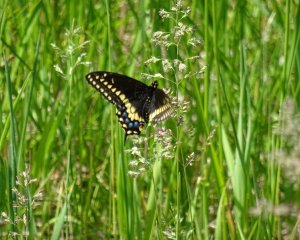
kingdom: Animalia
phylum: Arthropoda
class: Insecta
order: Lepidoptera
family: Papilionidae
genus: Papilio
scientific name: Papilio polyxenes
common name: Black Swallowtail
